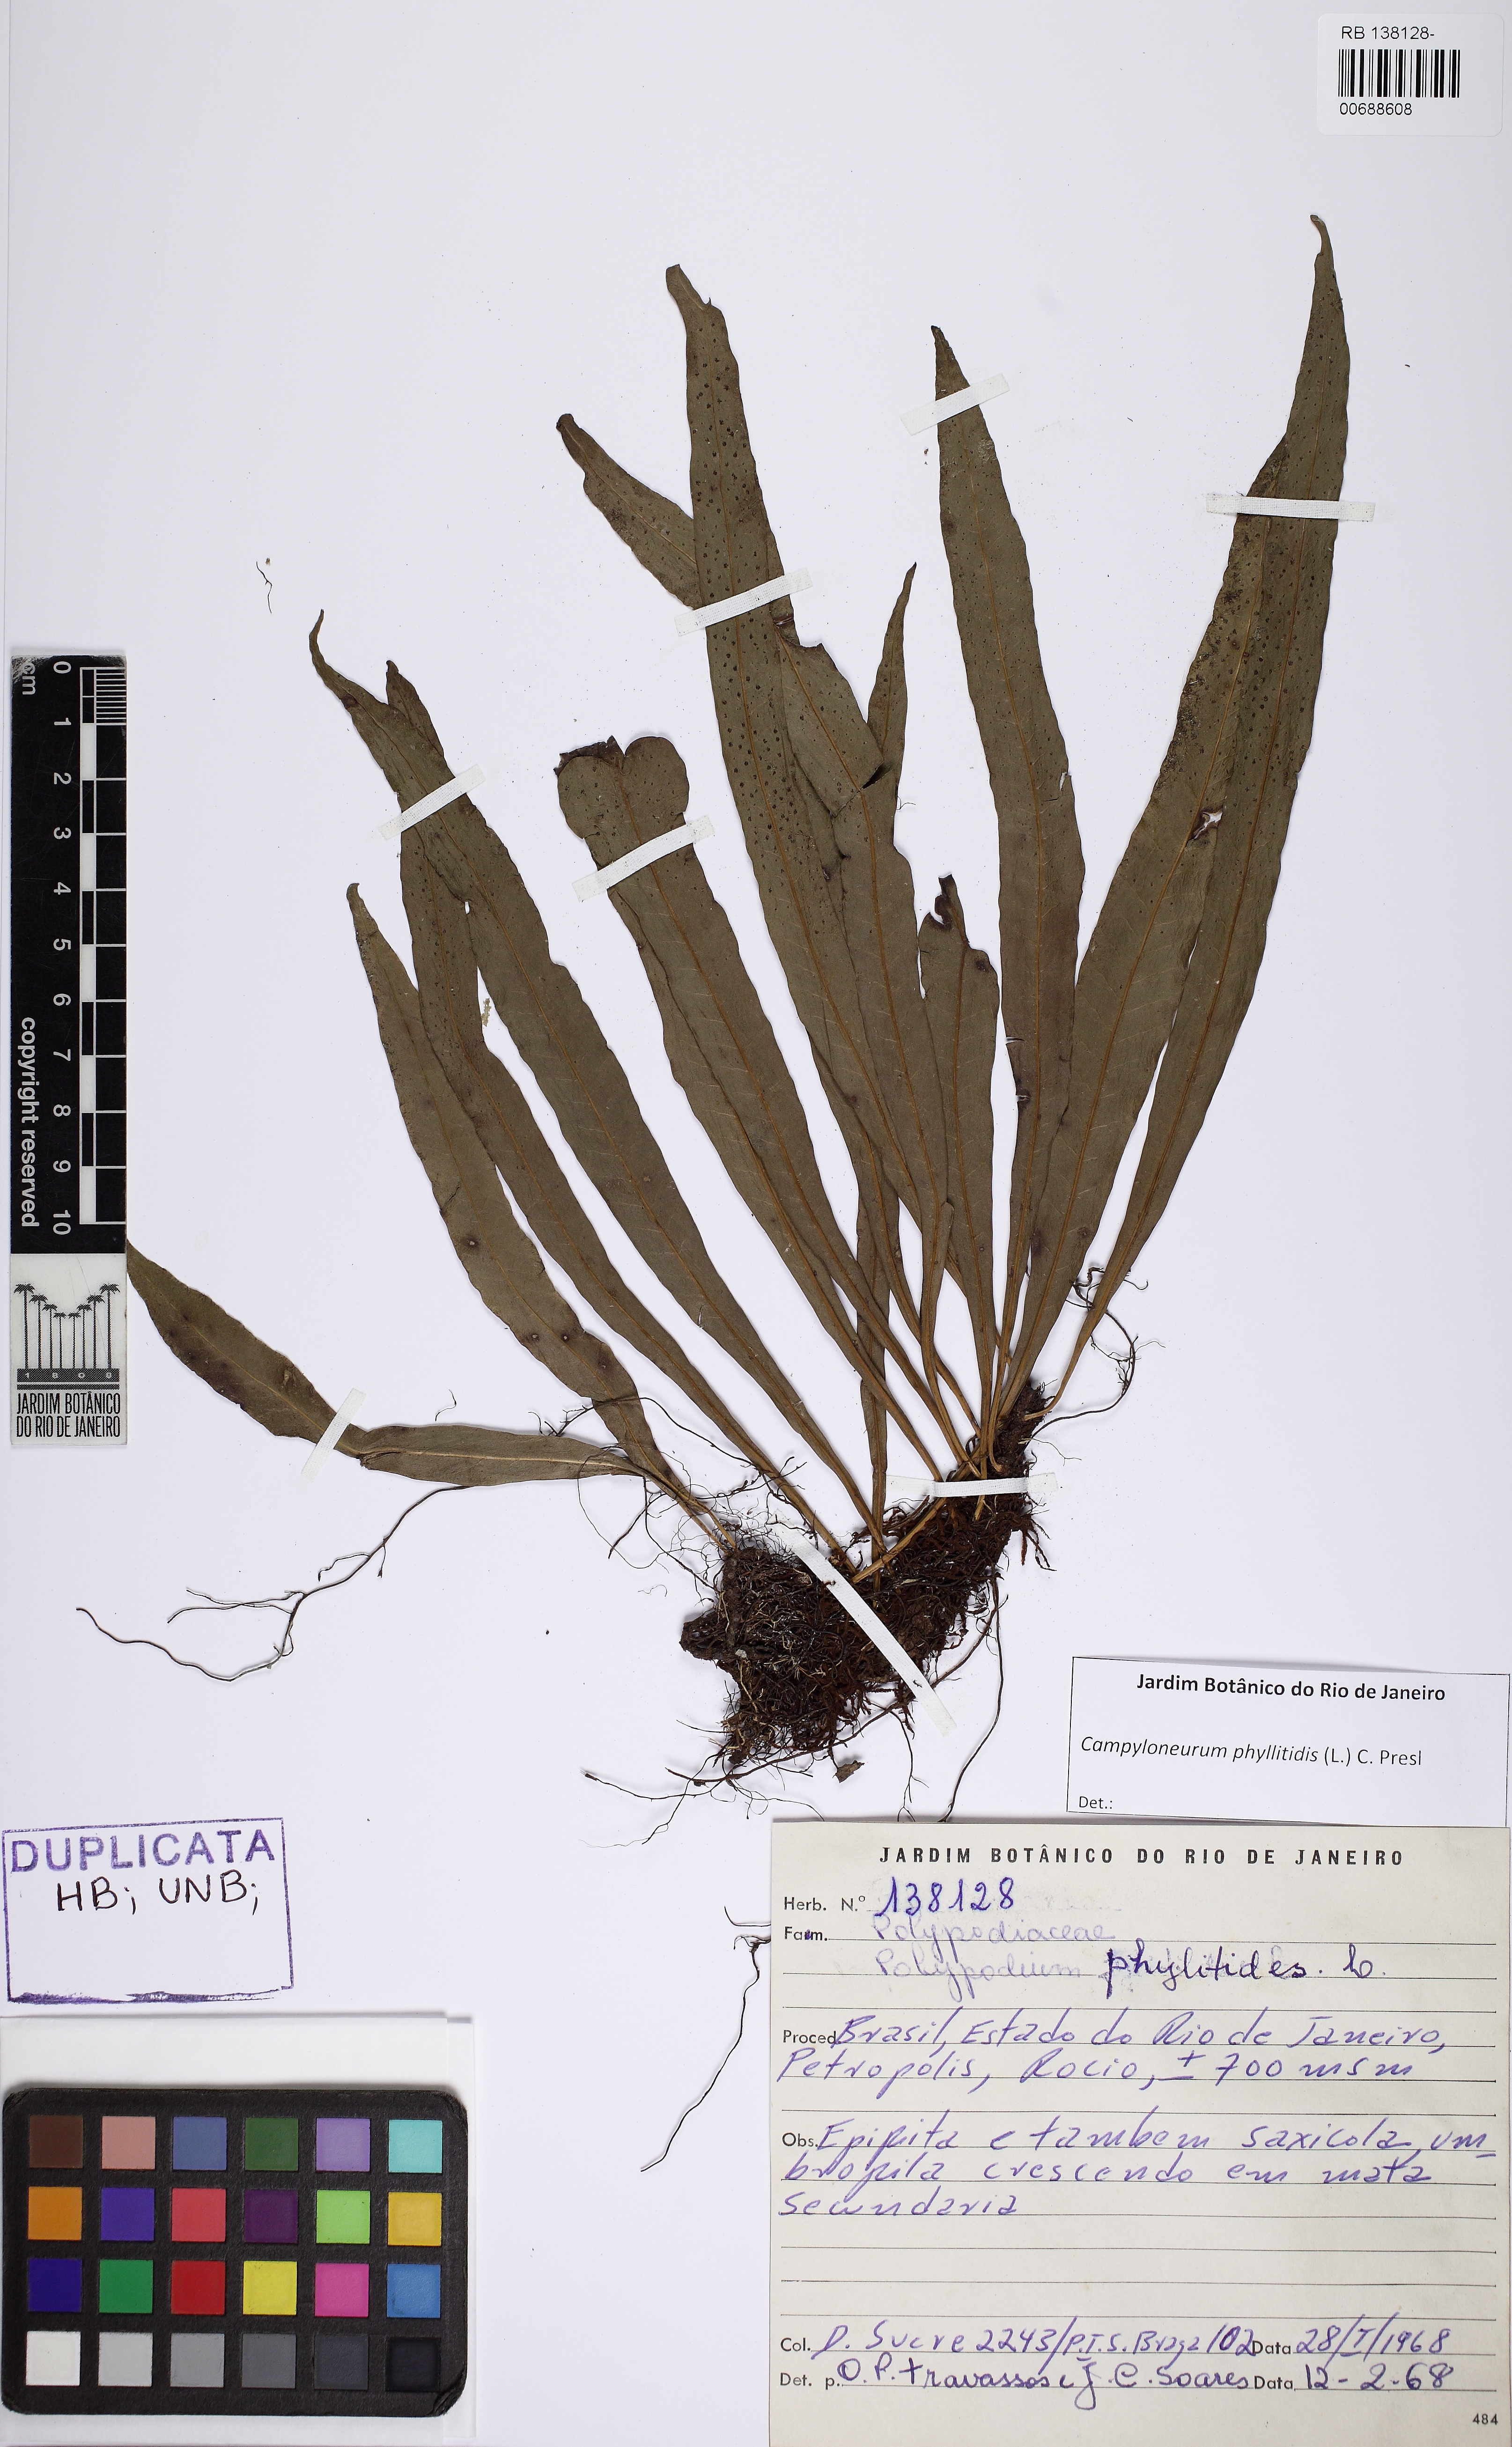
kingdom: Plantae
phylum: Tracheophyta
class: Polypodiopsida
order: Polypodiales
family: Polypodiaceae
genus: Campyloneurum
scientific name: Campyloneurum phyllitidis
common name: Cow-tongue fern
